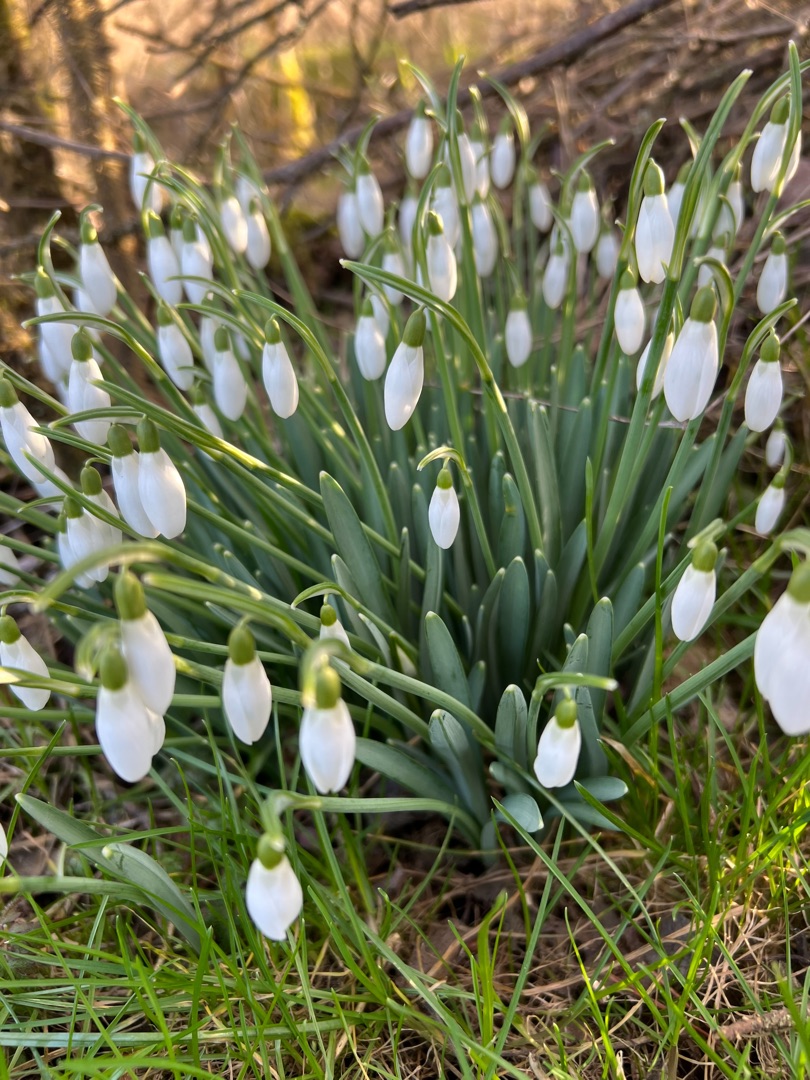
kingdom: Plantae
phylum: Tracheophyta
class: Liliopsida
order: Asparagales
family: Amaryllidaceae
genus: Galanthus
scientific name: Galanthus nivalis
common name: Vintergæk
